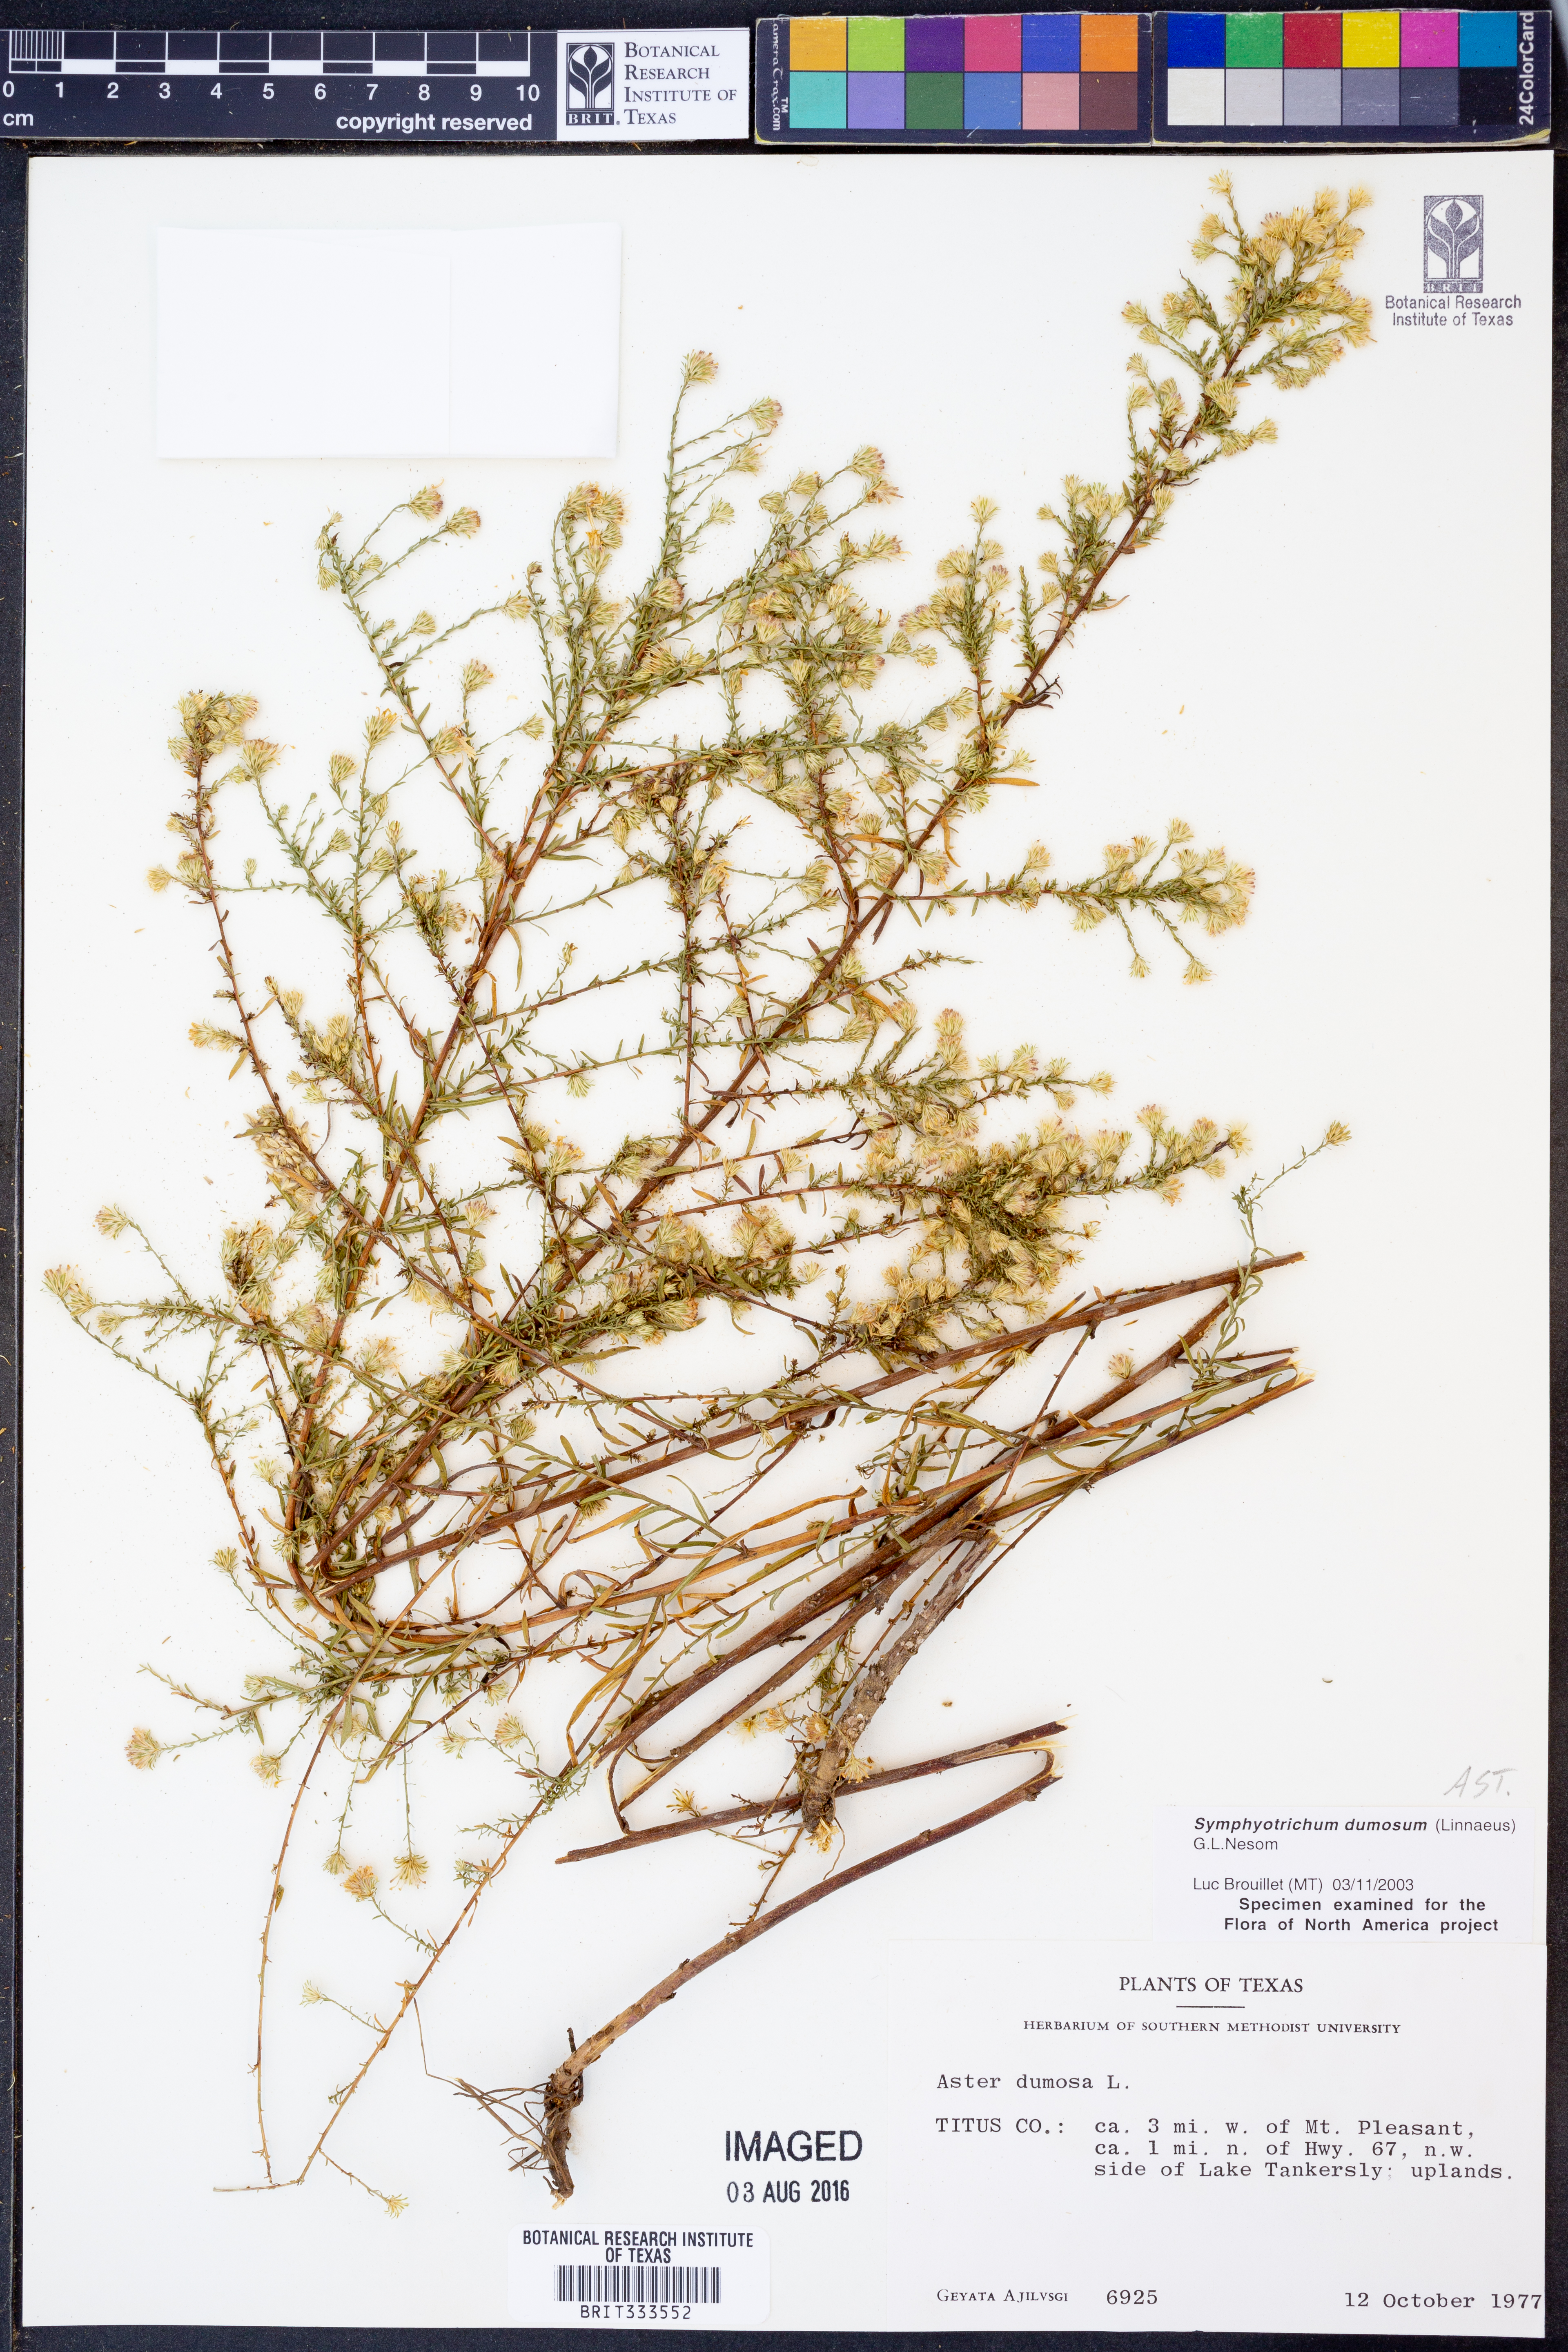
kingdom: Plantae
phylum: Tracheophyta
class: Magnoliopsida
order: Asterales
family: Asteraceae
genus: Symphyotrichum
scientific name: Symphyotrichum dumosum
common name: Bushy aster
